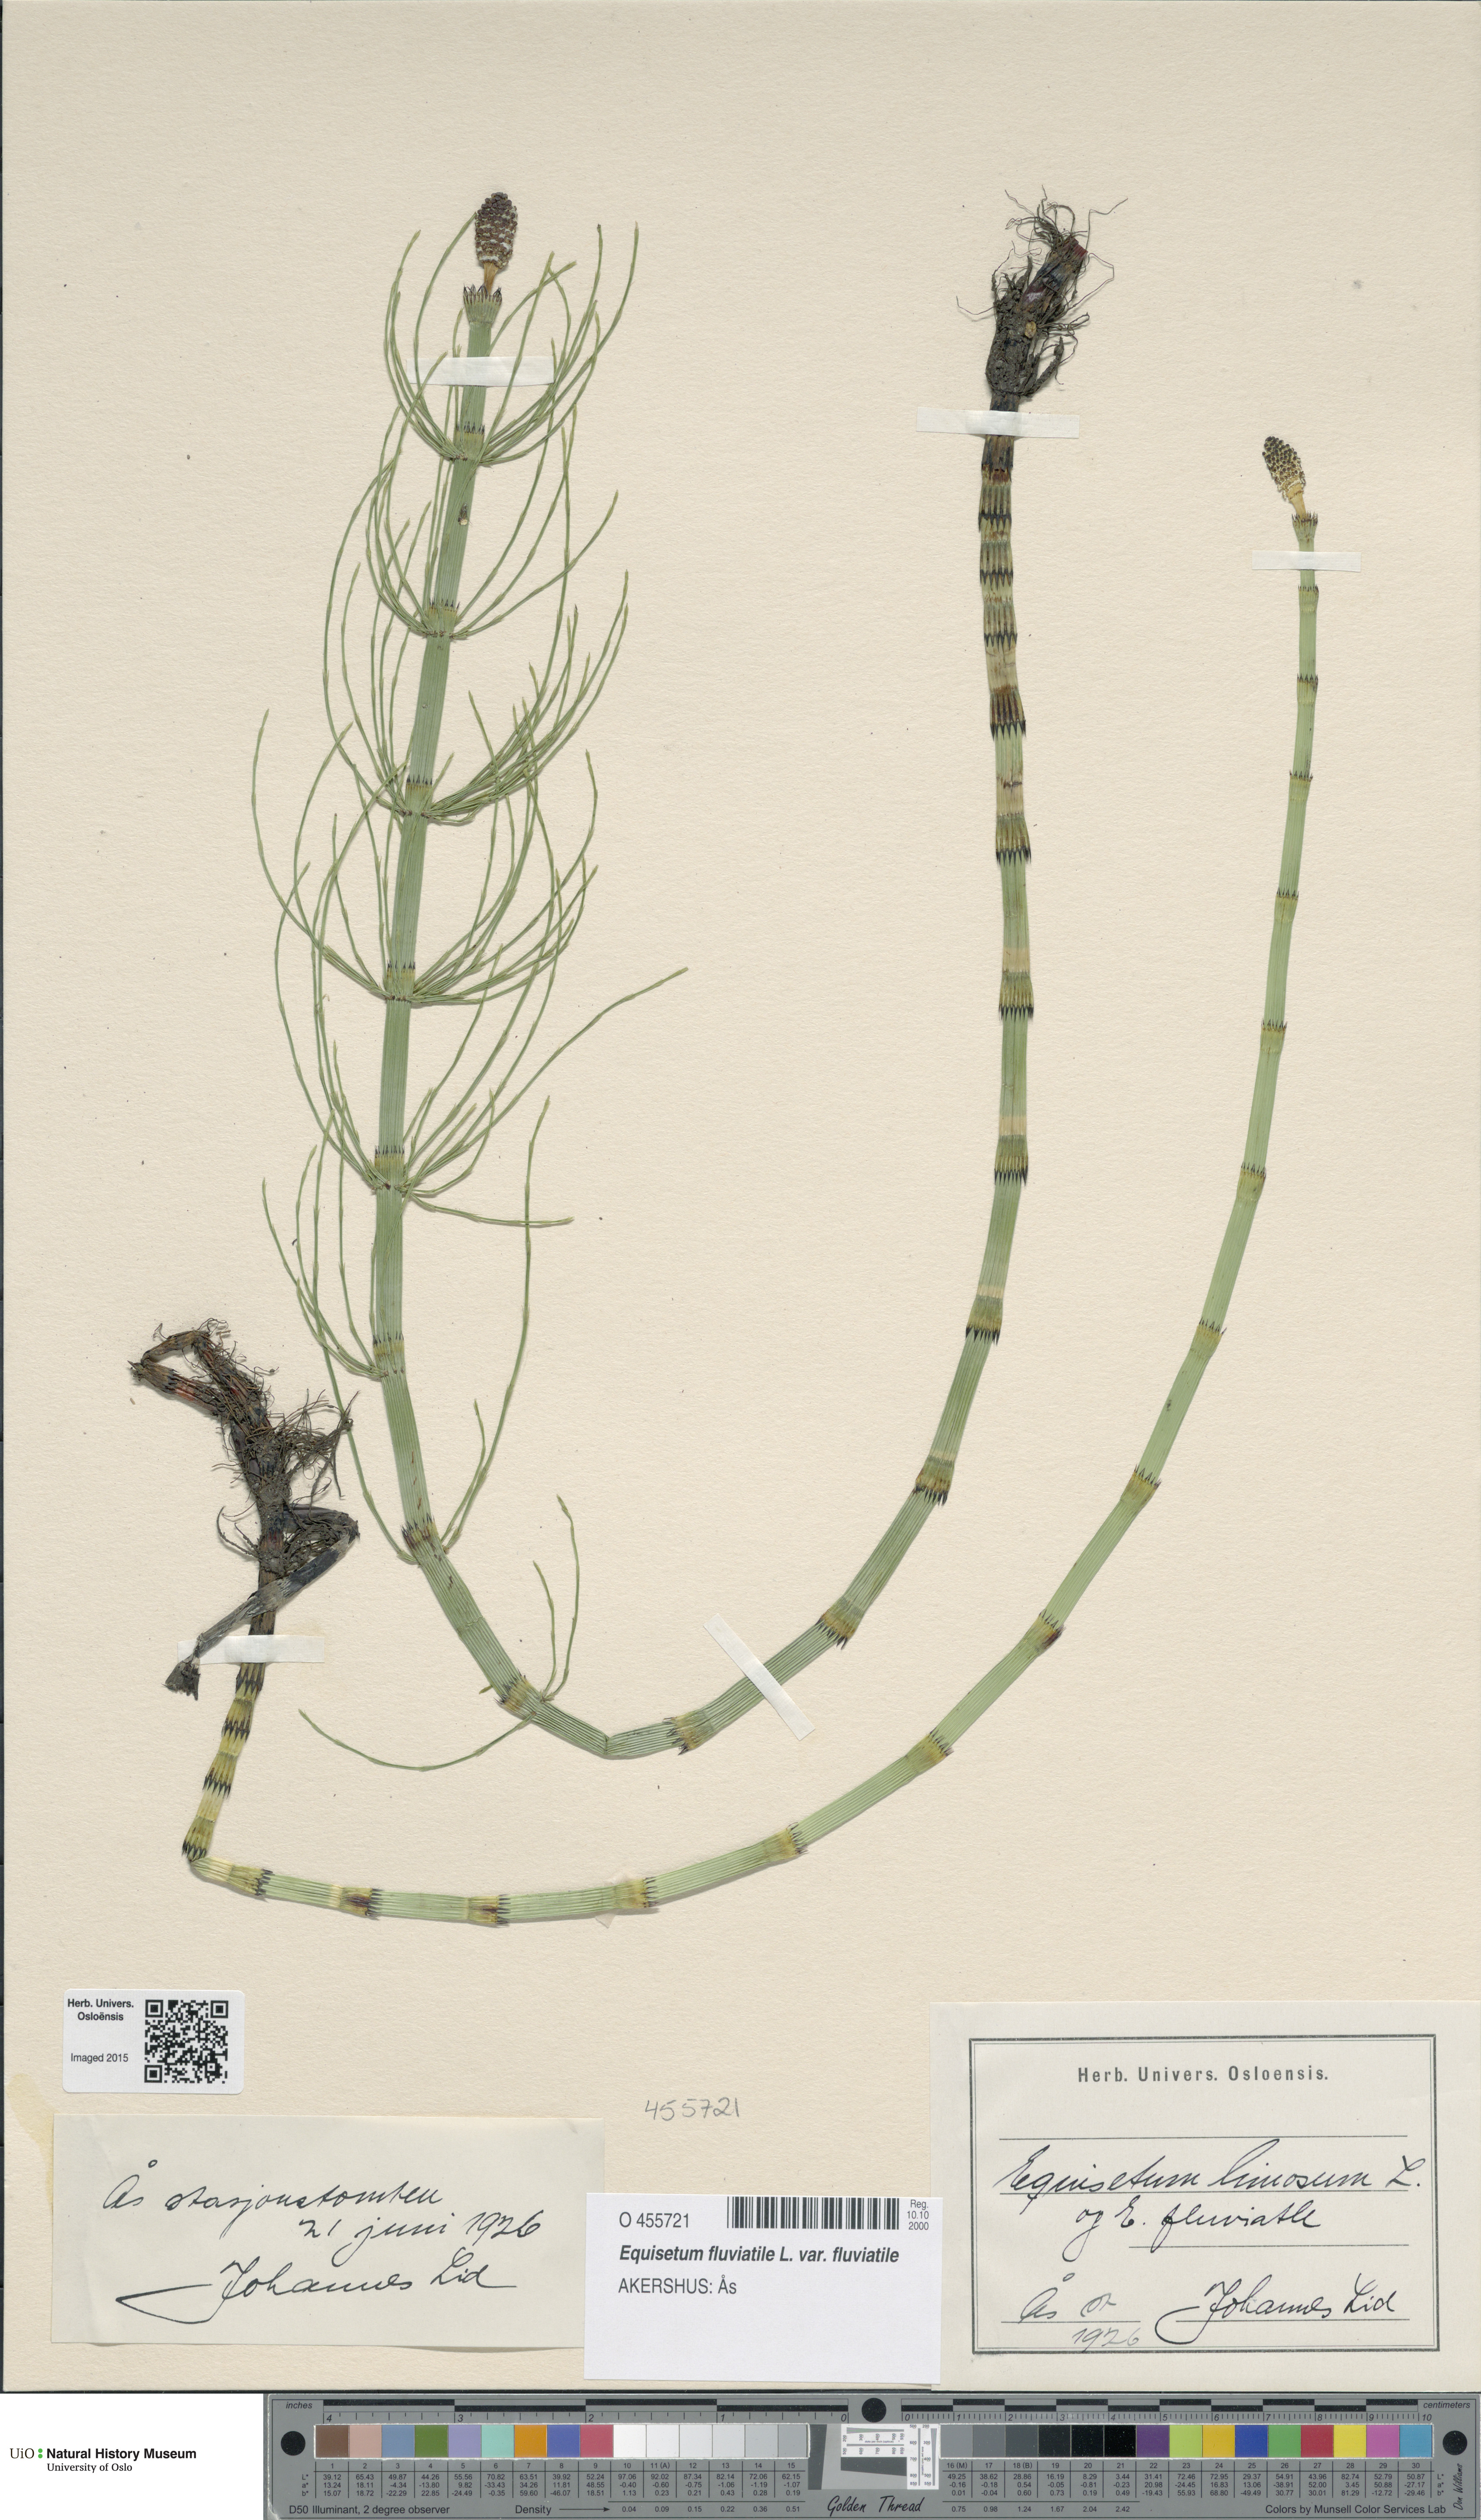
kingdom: Plantae
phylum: Tracheophyta
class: Polypodiopsida
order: Equisetales
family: Equisetaceae
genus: Equisetum
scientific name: Equisetum fluviatile
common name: Water horsetail
